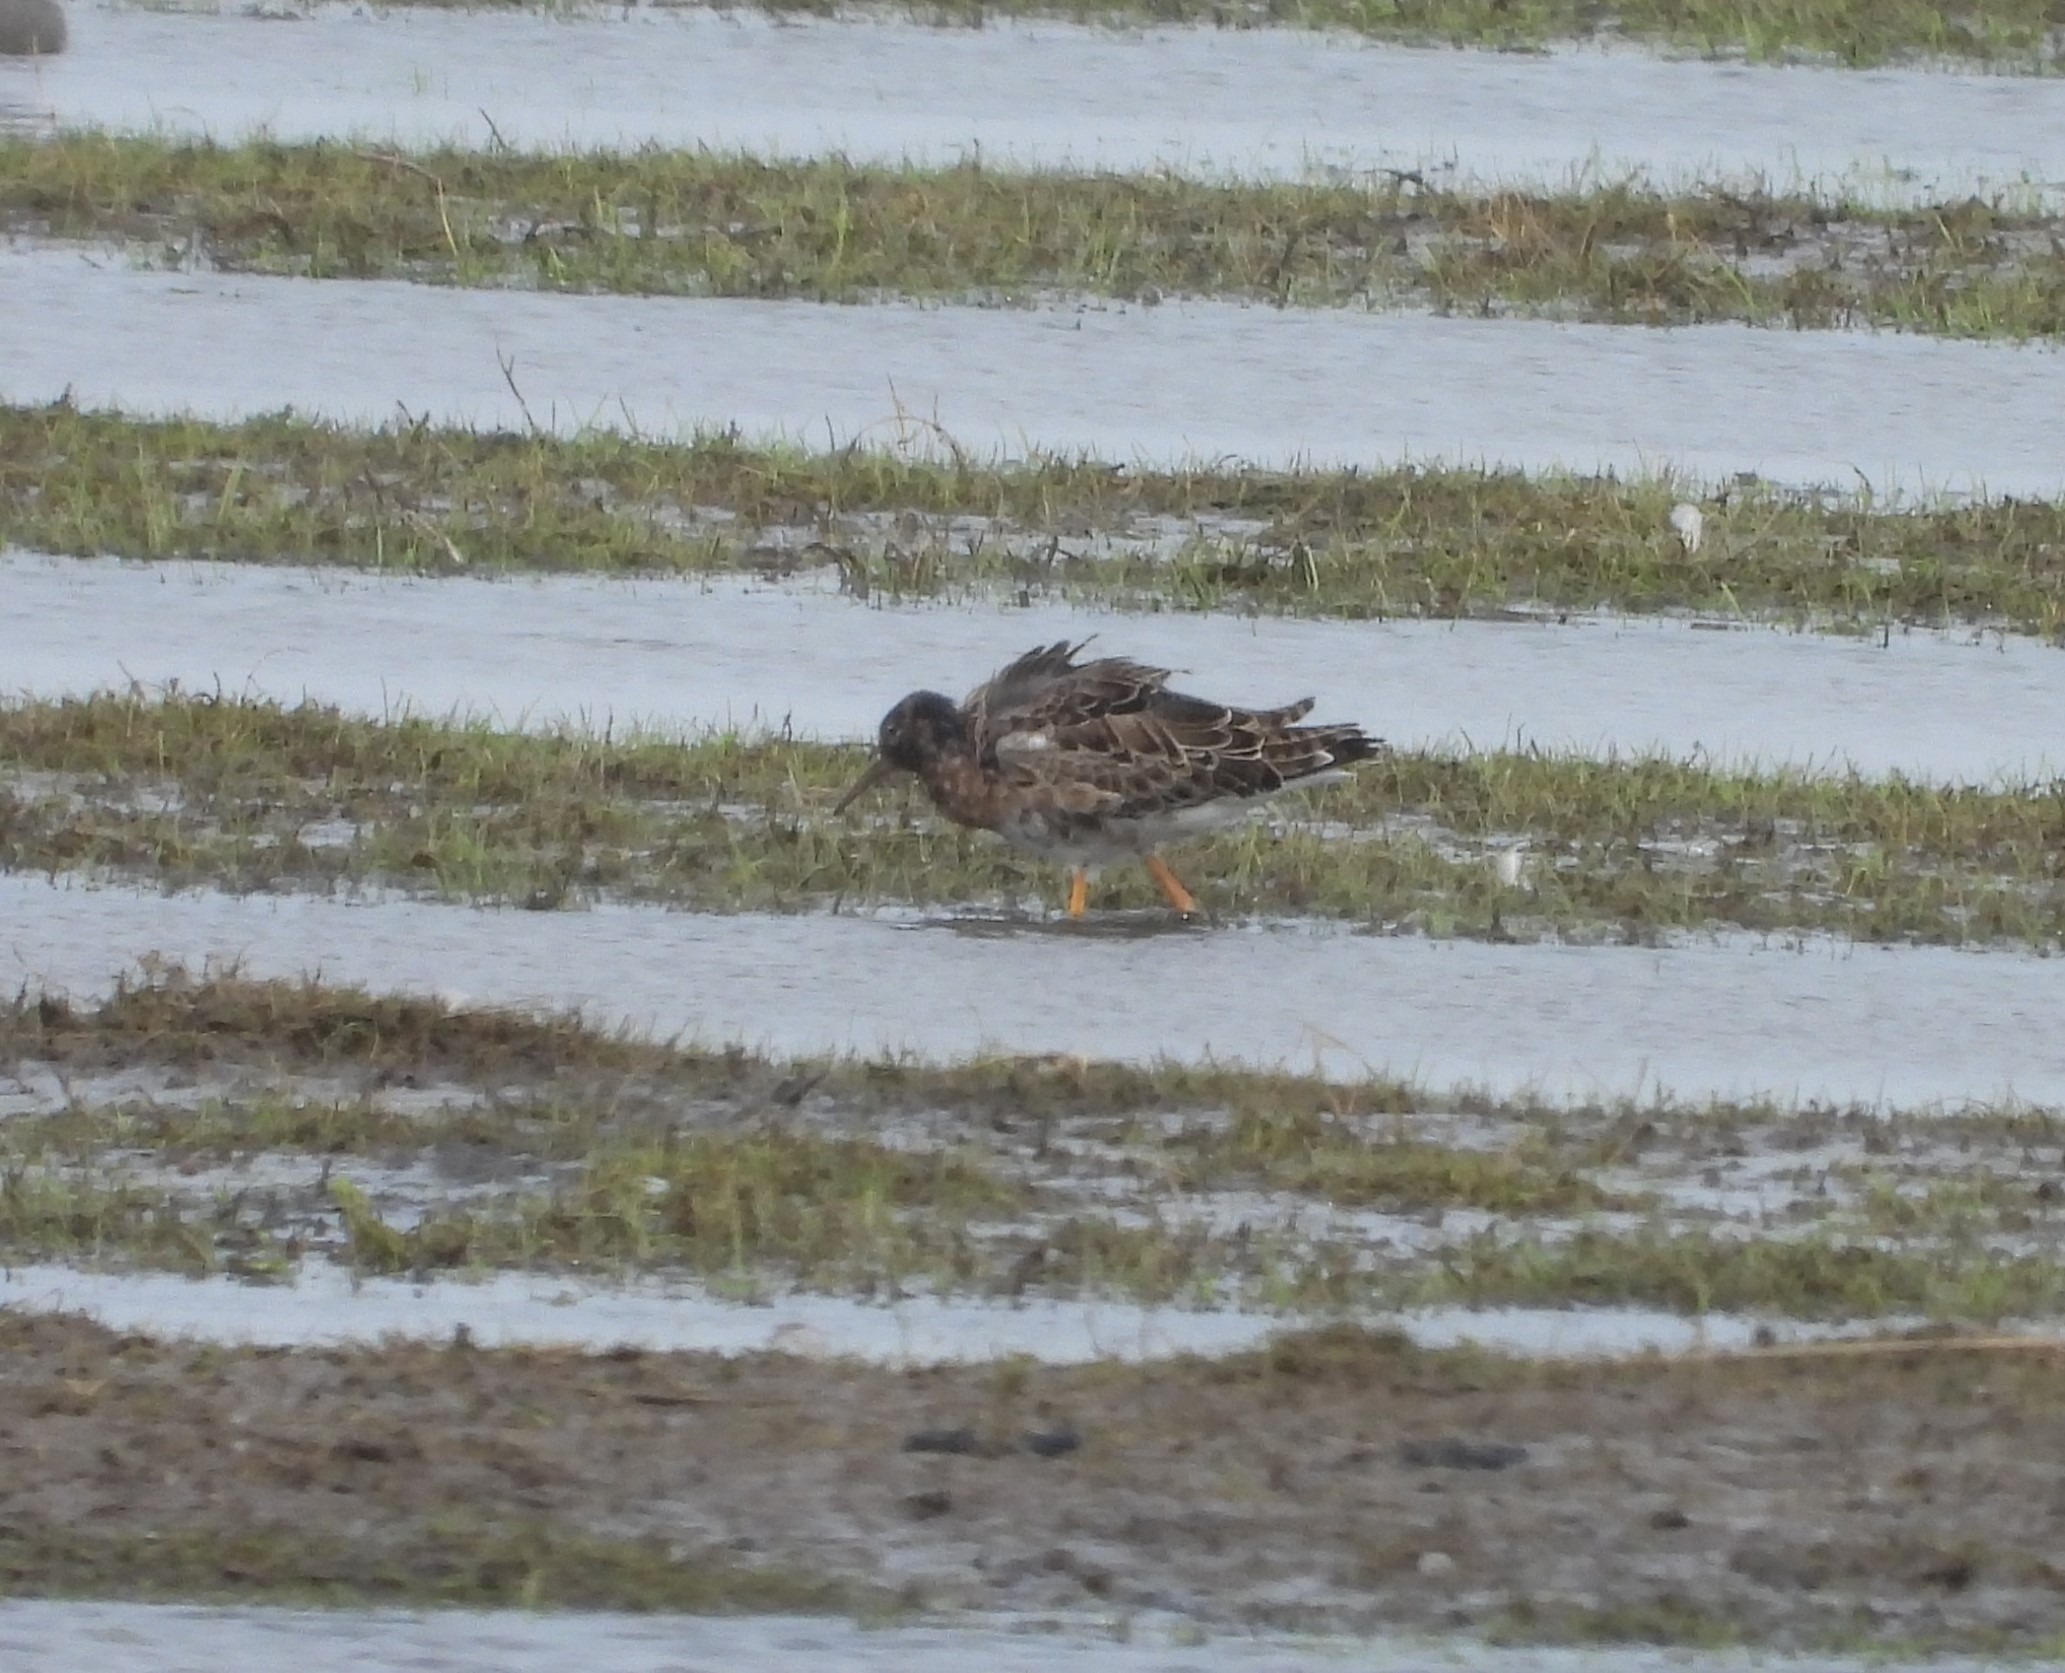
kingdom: Animalia
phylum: Chordata
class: Aves
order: Charadriiformes
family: Scolopacidae
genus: Calidris
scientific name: Calidris pugnax
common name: Brushane
